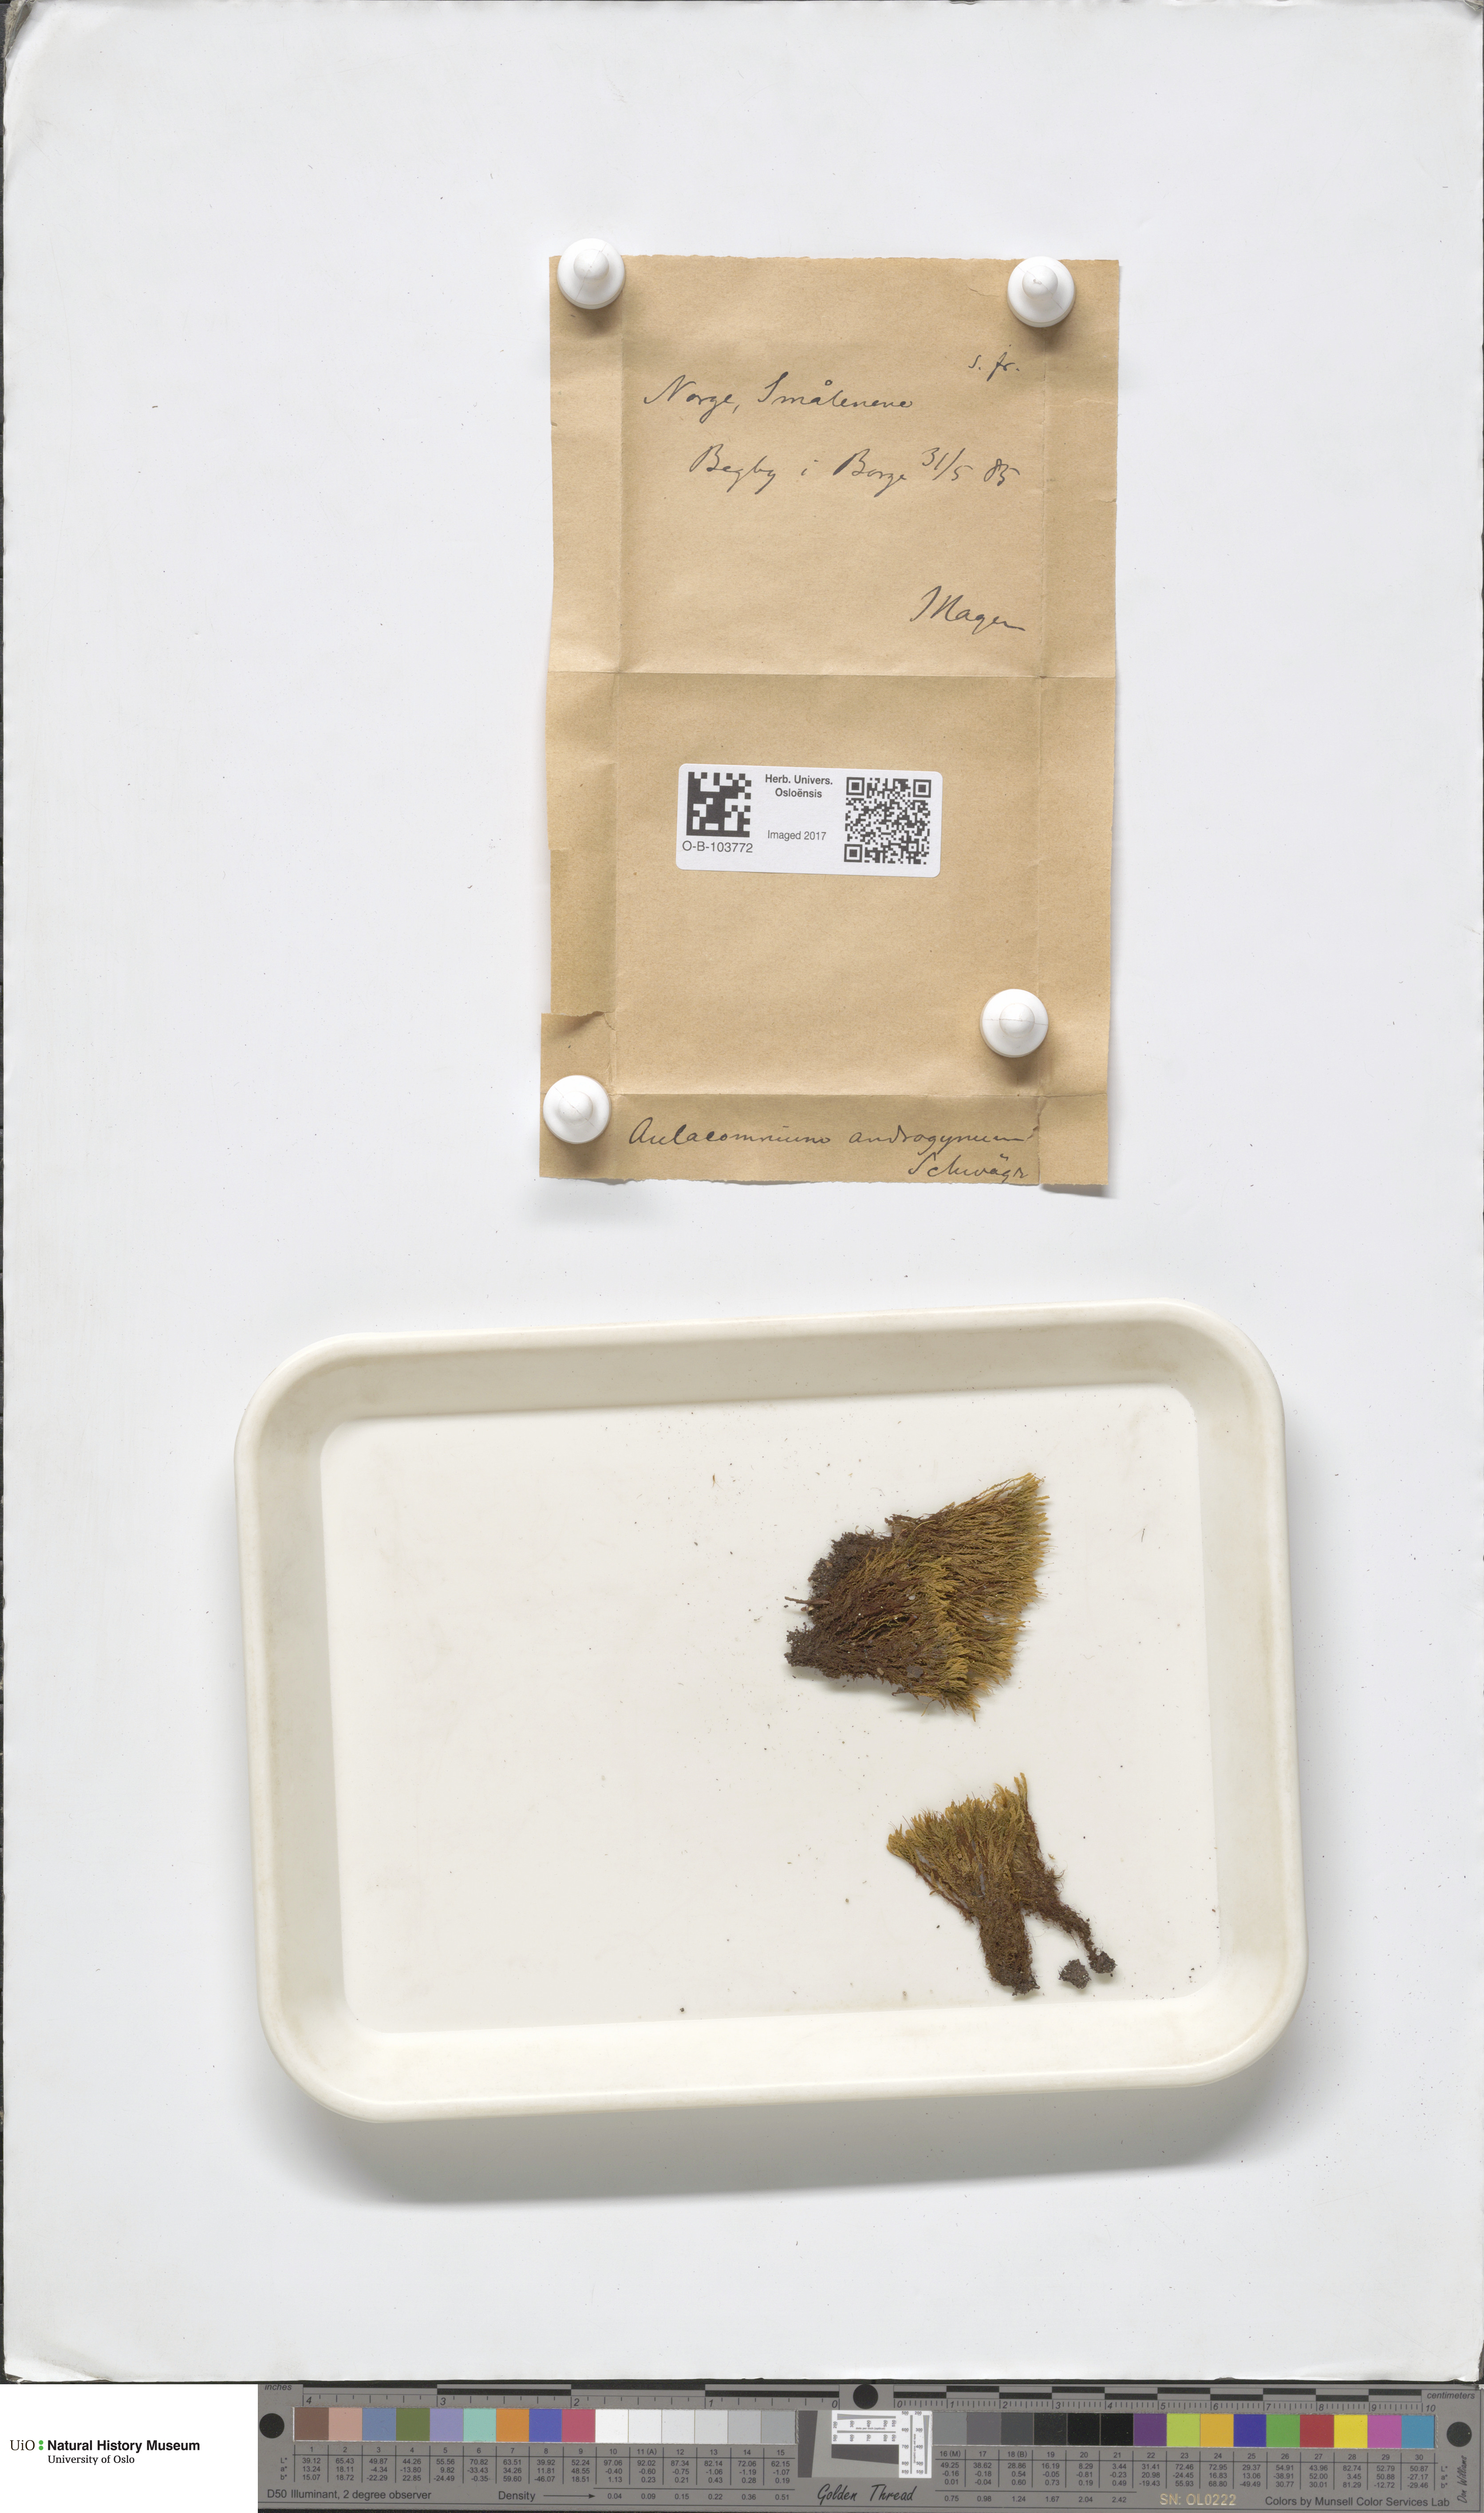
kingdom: Plantae
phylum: Bryophyta
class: Bryopsida
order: Aulacomniales
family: Aulacomniaceae
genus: Aulacomnium
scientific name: Aulacomnium androgynum
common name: Little groove moss
